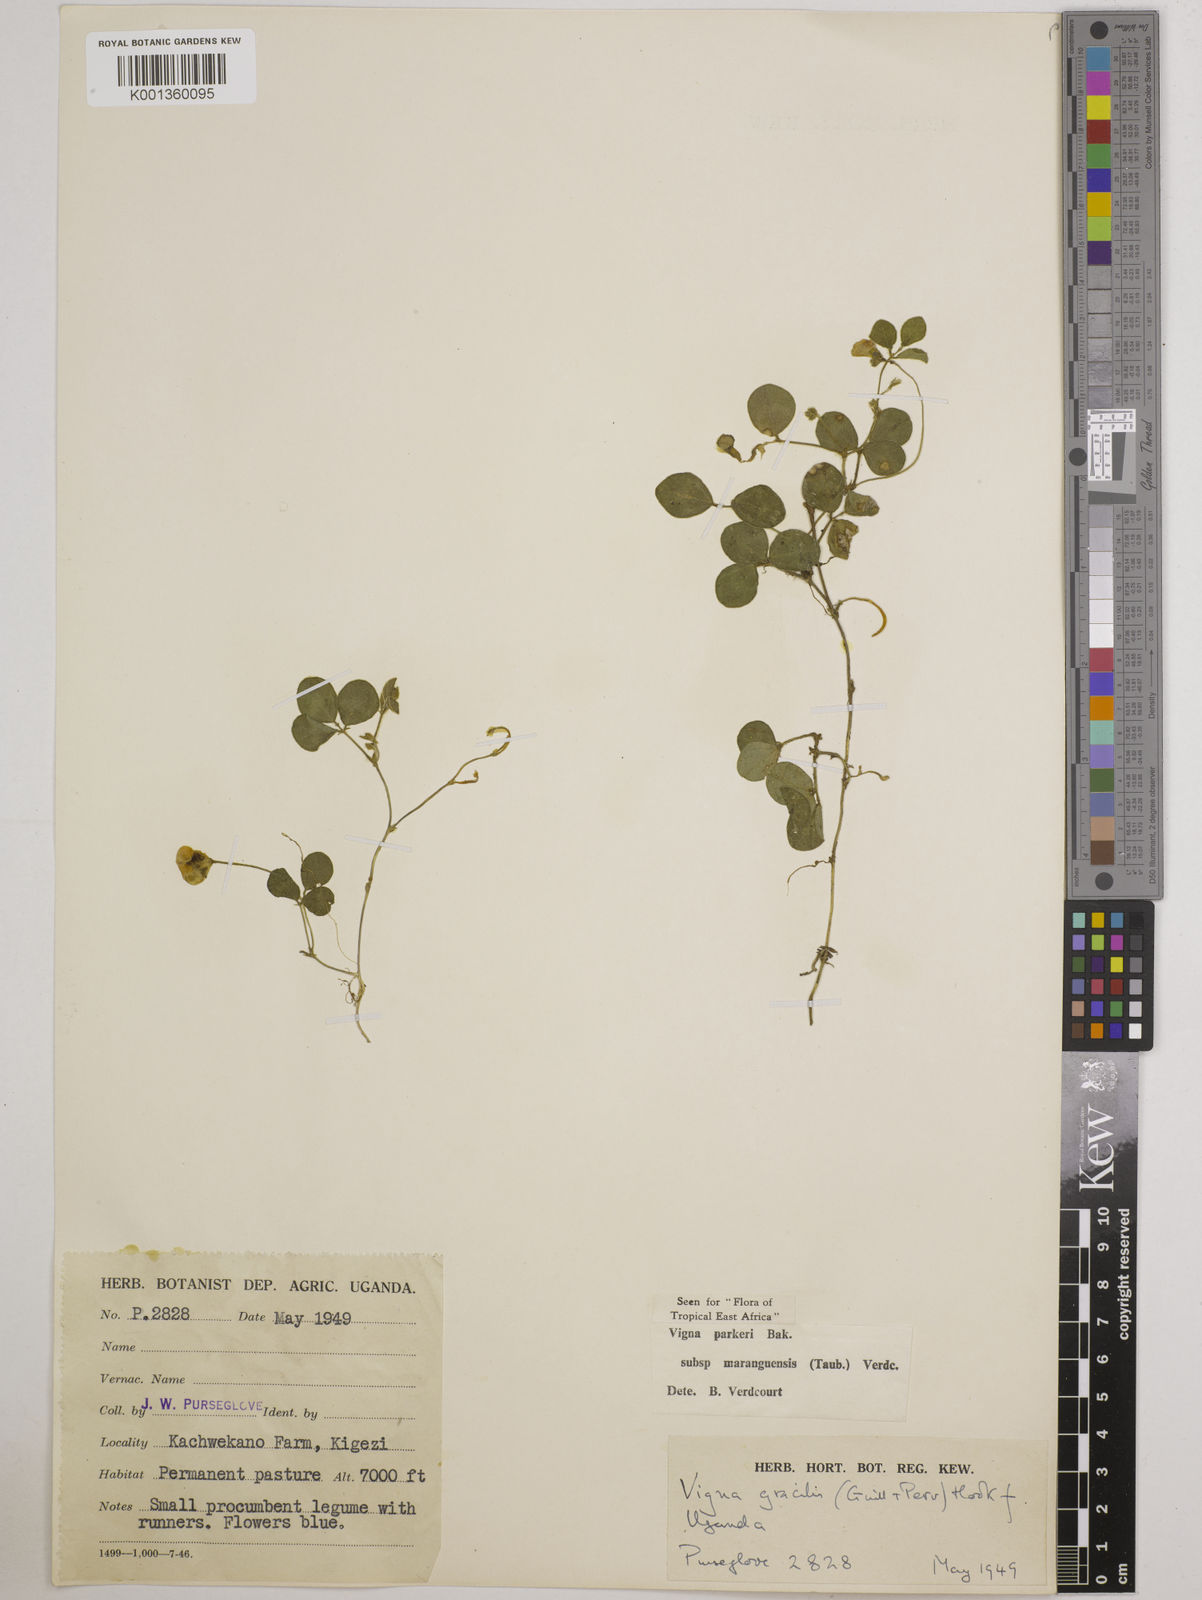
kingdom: Plantae
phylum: Tracheophyta
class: Magnoliopsida
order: Fabales
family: Fabaceae
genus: Vigna
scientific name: Vigna parkeri
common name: Creeping vigna
